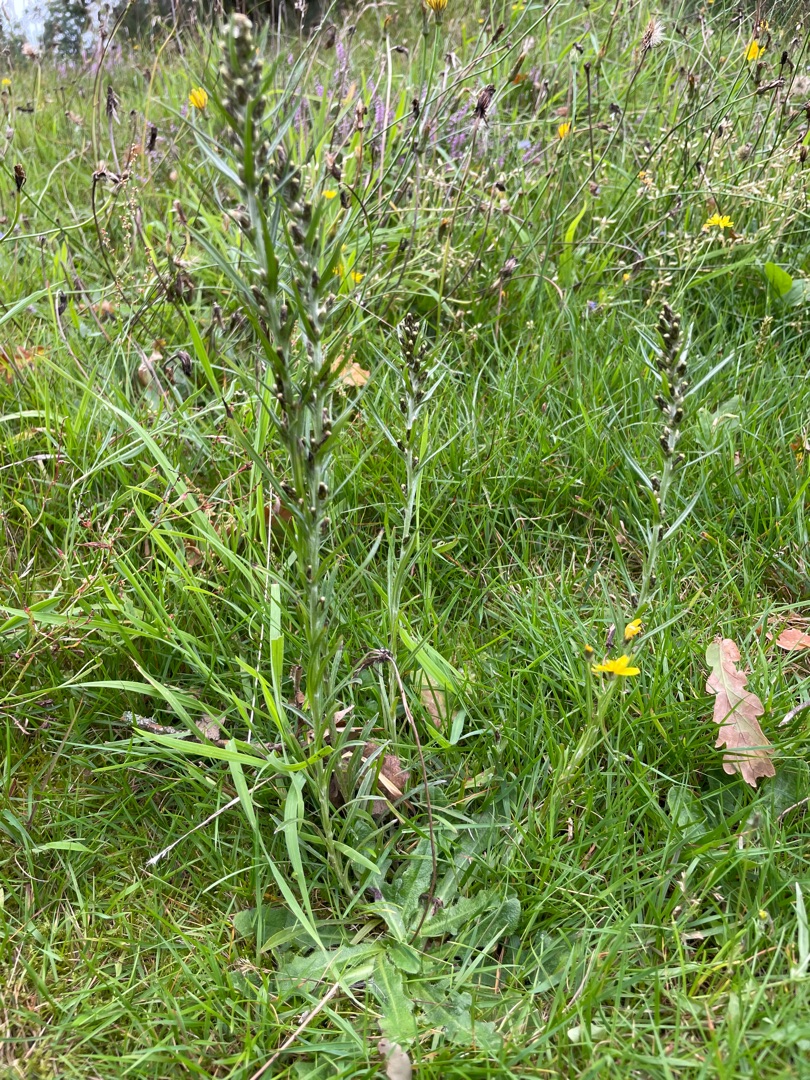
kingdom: Plantae
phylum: Tracheophyta
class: Magnoliopsida
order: Asterales
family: Asteraceae
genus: Omalotheca
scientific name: Omalotheca sylvatica
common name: Rank evighedsblomst
